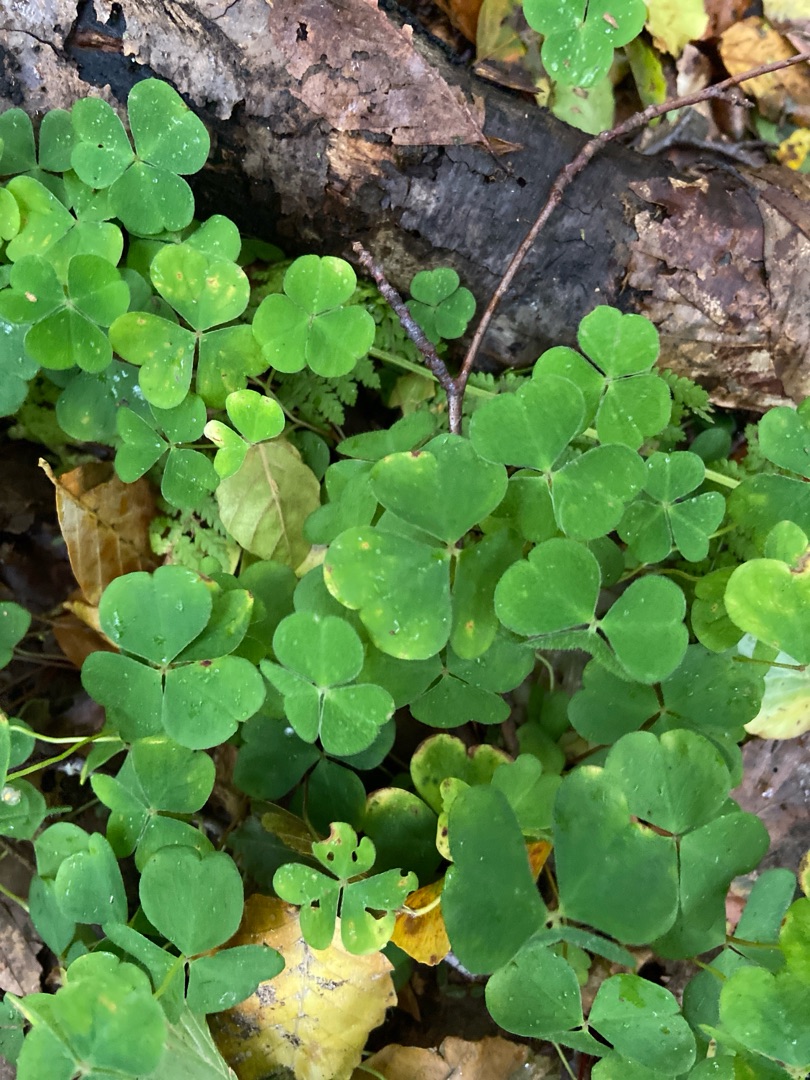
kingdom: Plantae
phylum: Tracheophyta
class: Magnoliopsida
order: Oxalidales
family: Oxalidaceae
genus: Oxalis
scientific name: Oxalis acetosella
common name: Skovsyre
